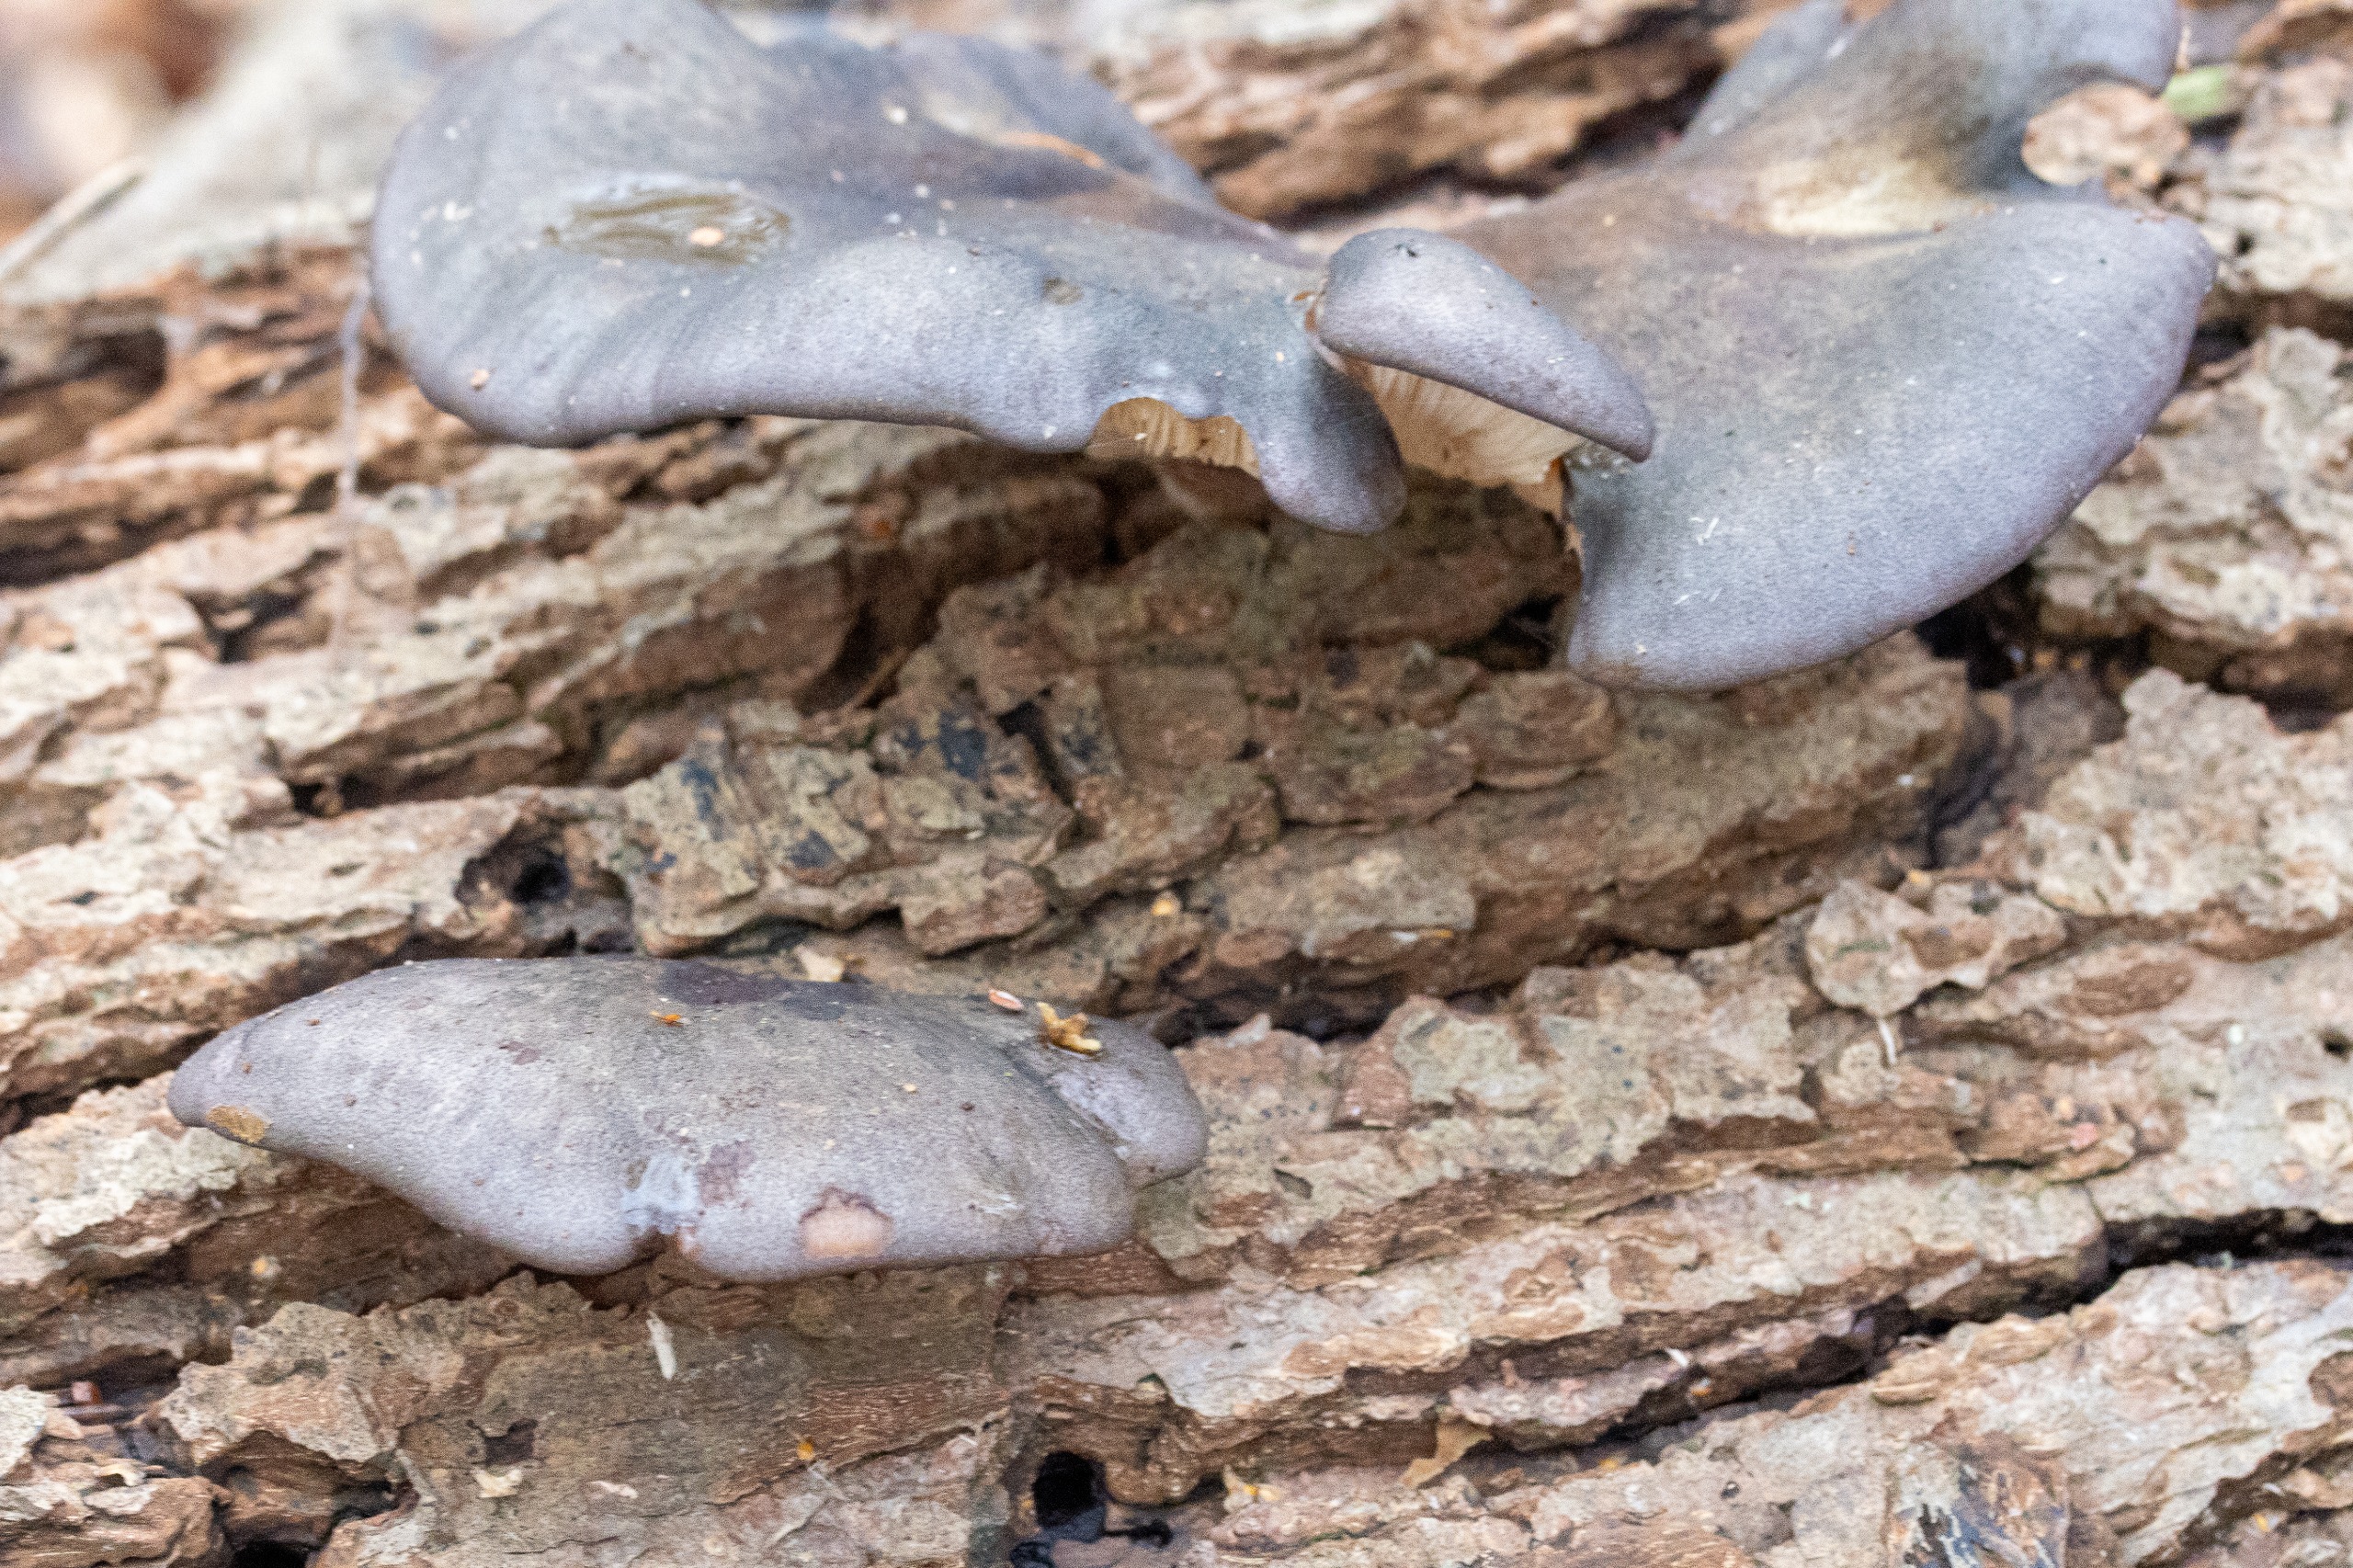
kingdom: Fungi
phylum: Basidiomycota
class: Agaricomycetes
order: Agaricales
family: Sarcomyxaceae
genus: Sarcomyxa
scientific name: Sarcomyxa serotina
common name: Gummihat
